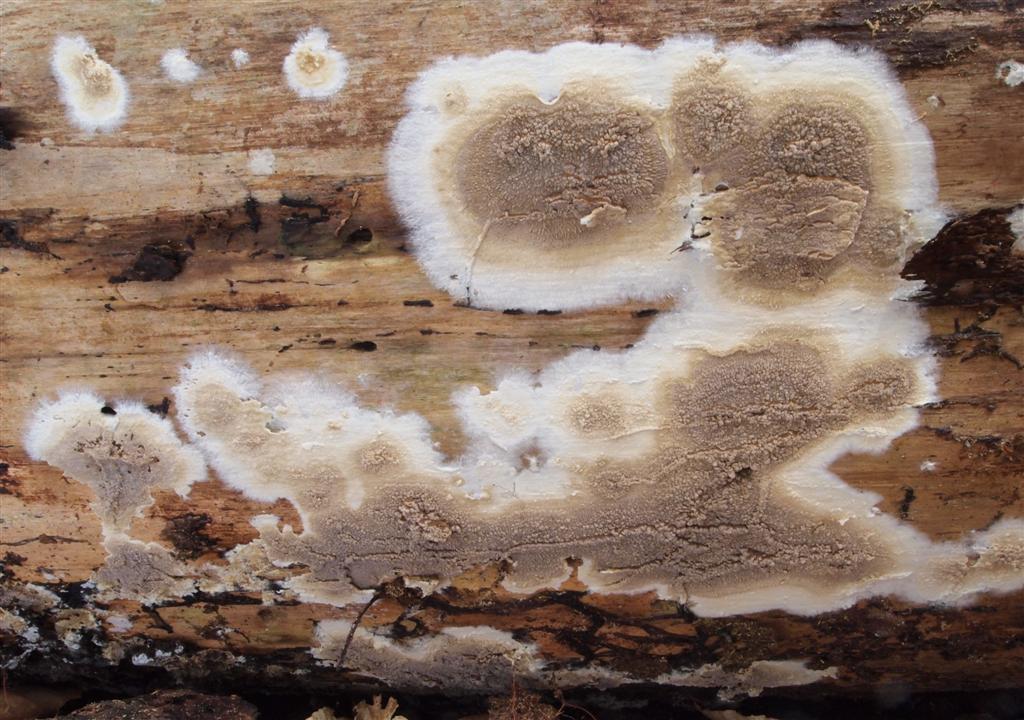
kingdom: Fungi
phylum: Basidiomycota
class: Agaricomycetes
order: Boletales
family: Coniophoraceae
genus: Coniophora
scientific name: Coniophora puteana
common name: gul tømmersvamp
